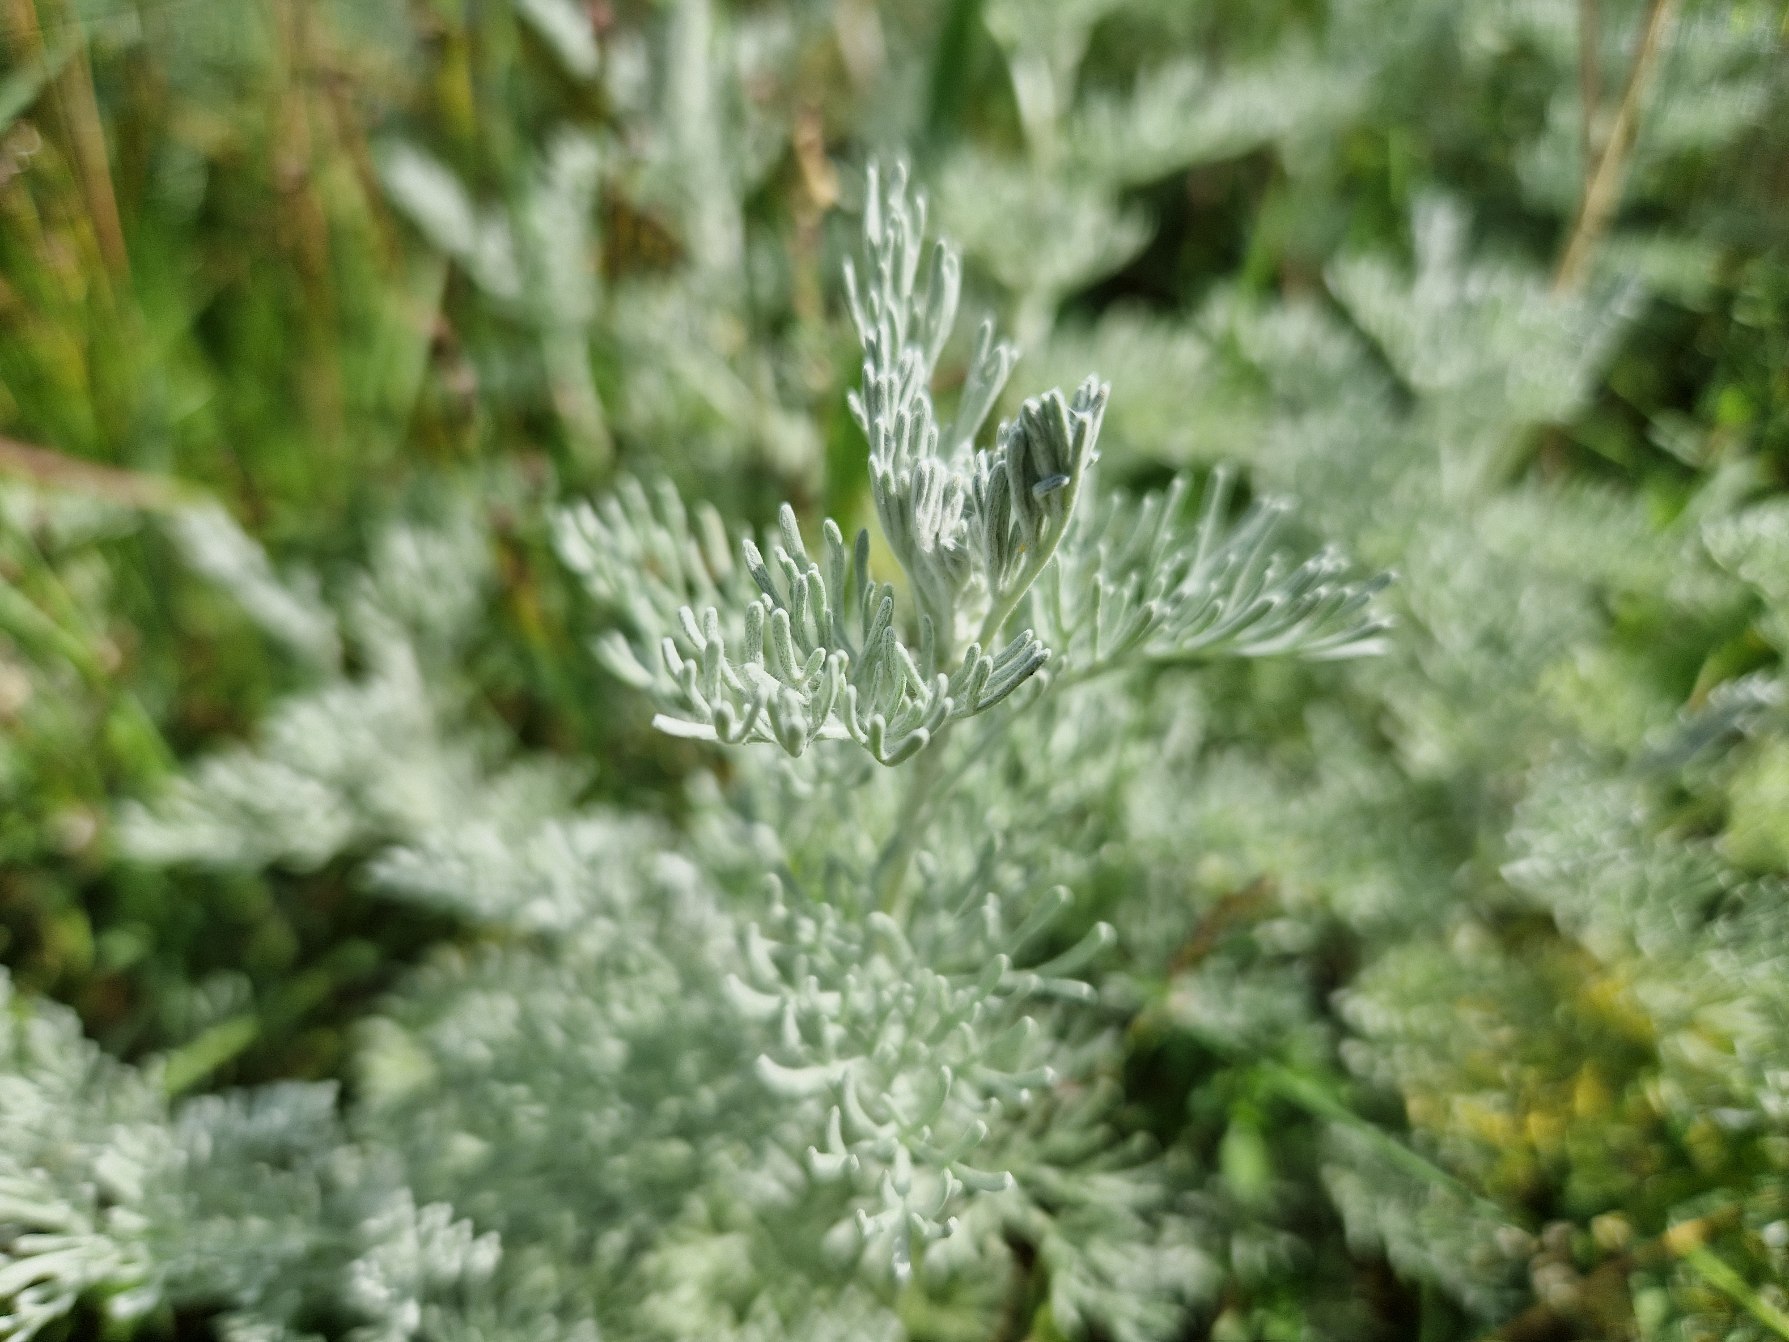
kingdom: Plantae
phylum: Tracheophyta
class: Magnoliopsida
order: Asterales
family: Asteraceae
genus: Artemisia
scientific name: Artemisia maritima
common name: Strandmalurt
